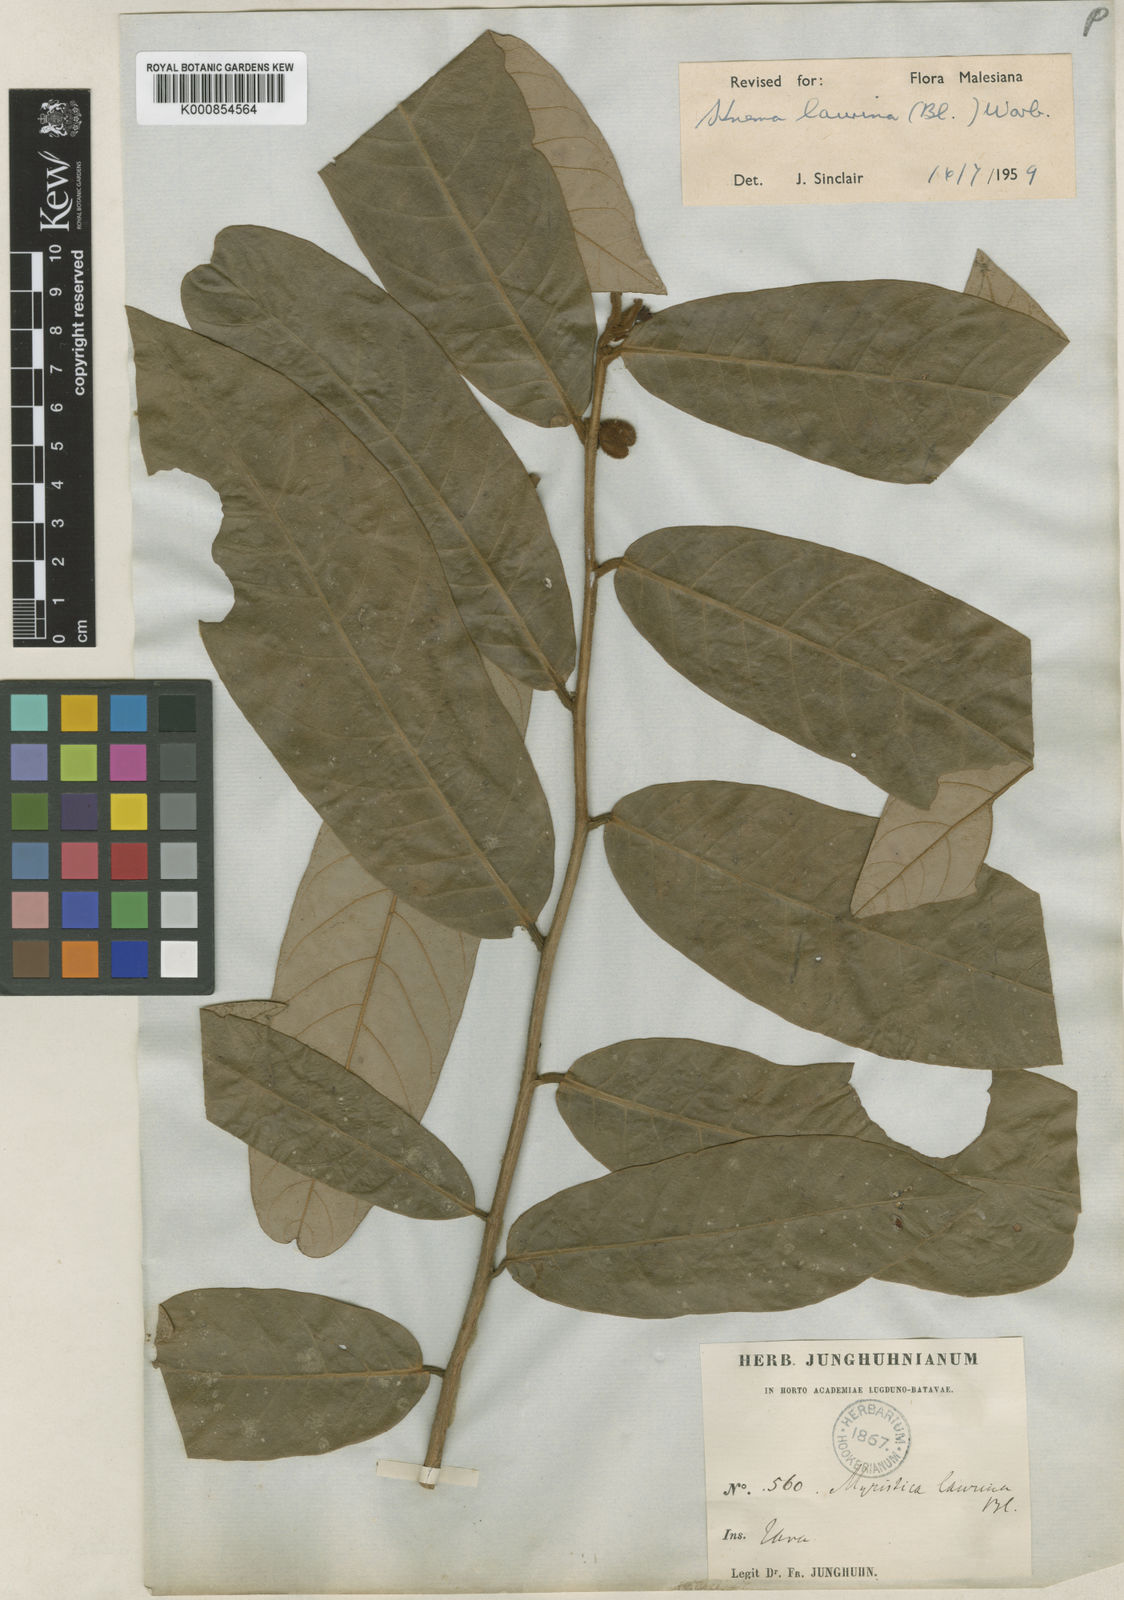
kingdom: Plantae
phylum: Tracheophyta
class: Magnoliopsida
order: Magnoliales
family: Myristicaceae
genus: Knema
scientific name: Knema laurina
